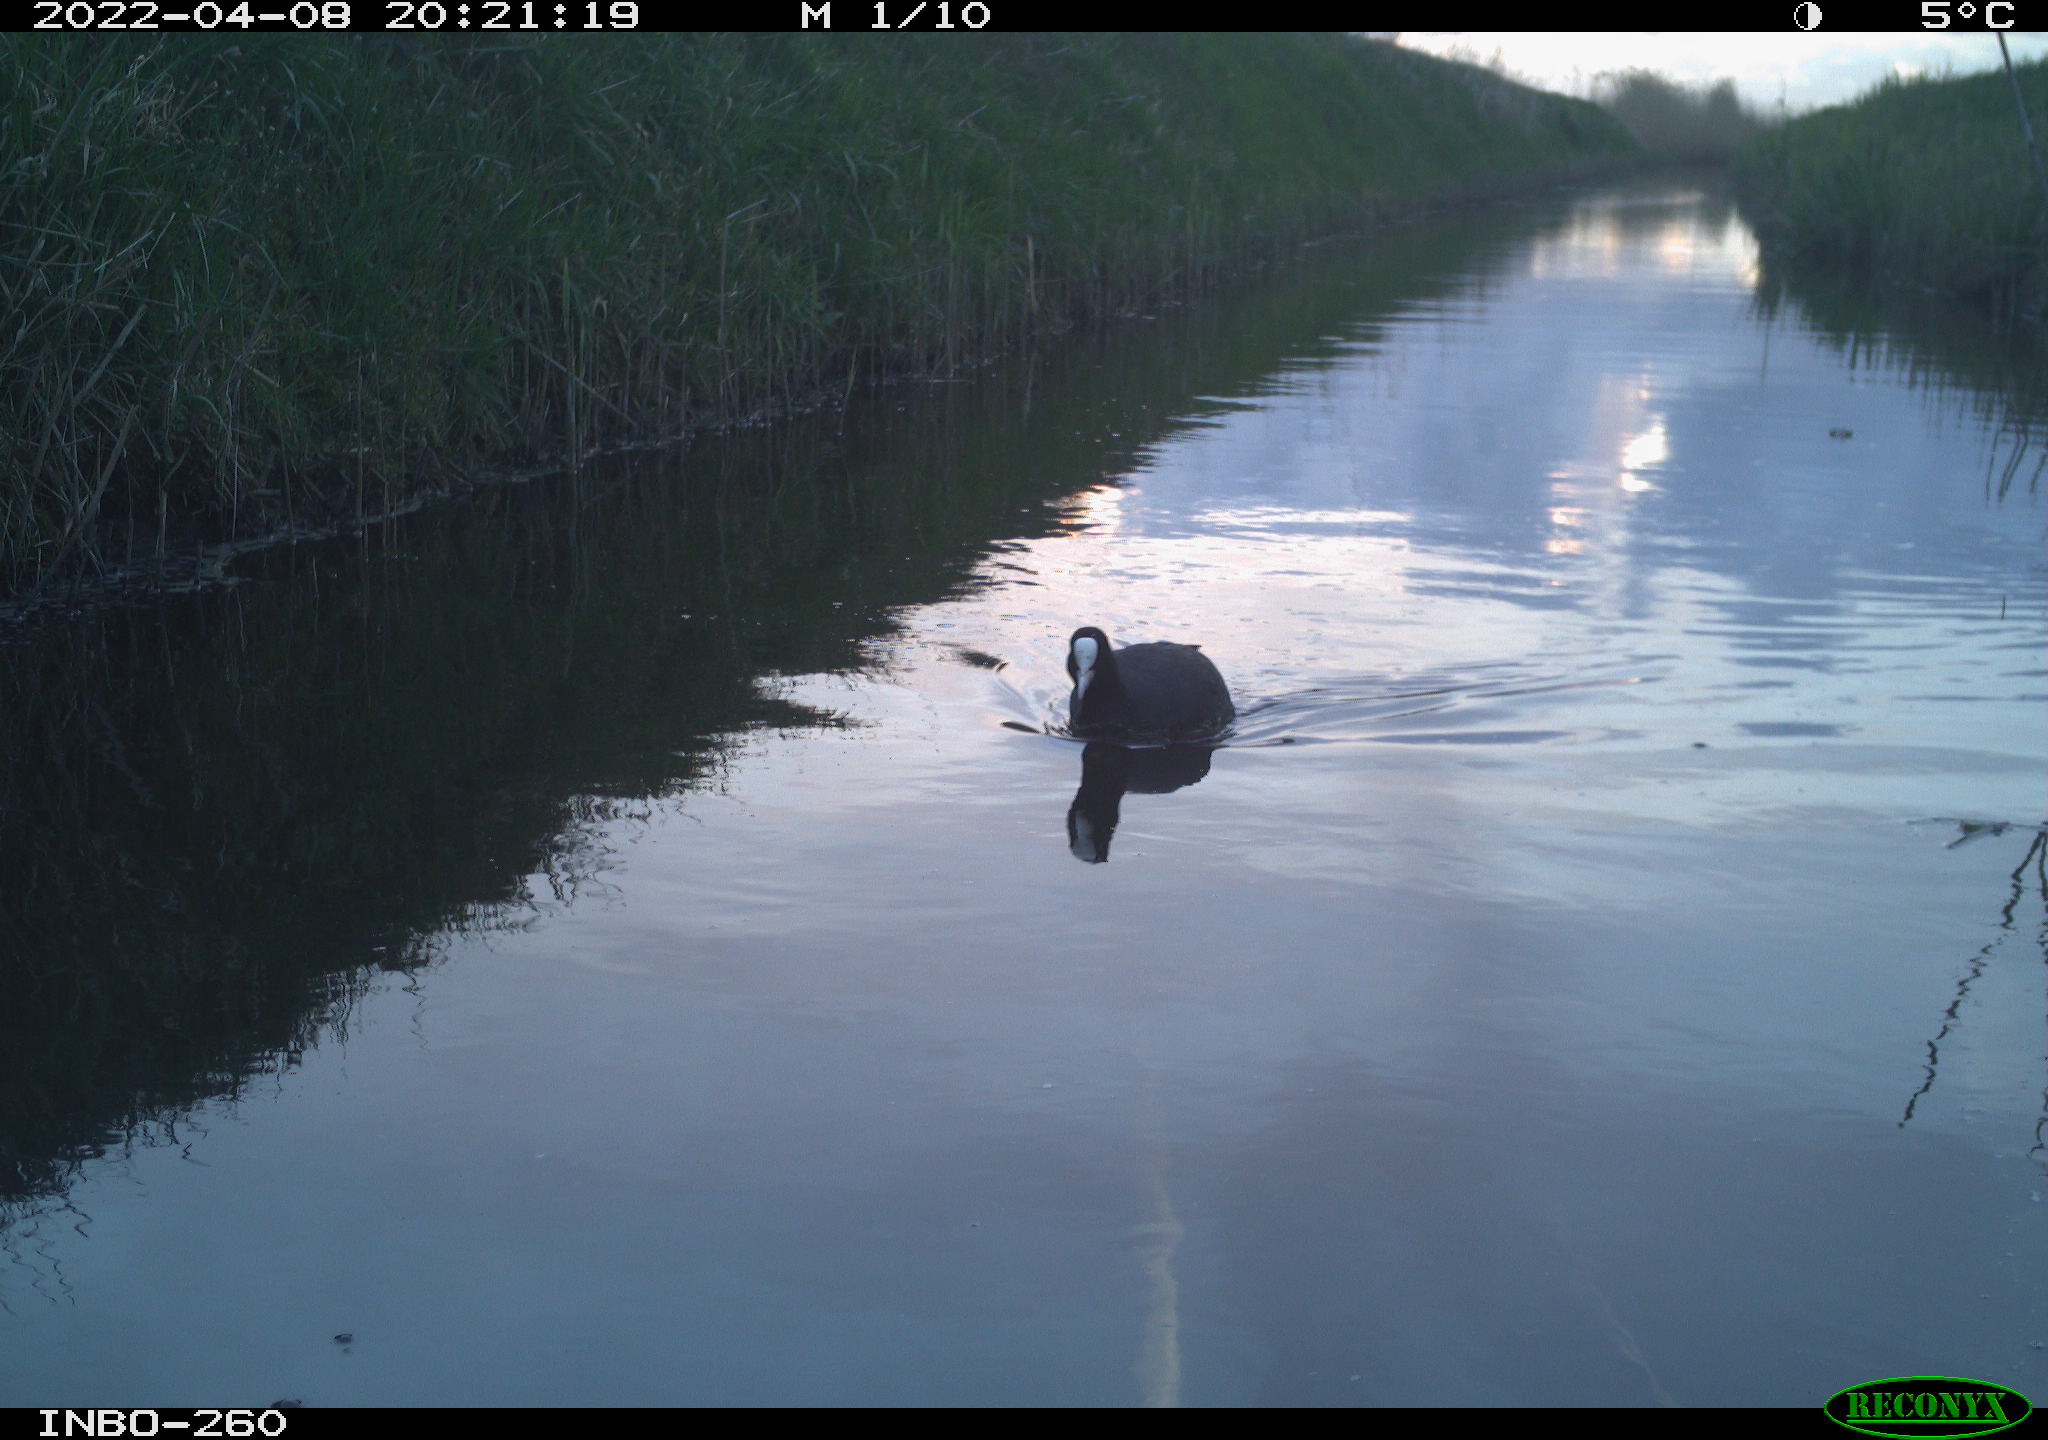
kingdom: Animalia
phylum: Chordata
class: Aves
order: Gruiformes
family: Rallidae
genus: Fulica
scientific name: Fulica atra
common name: Eurasian coot
